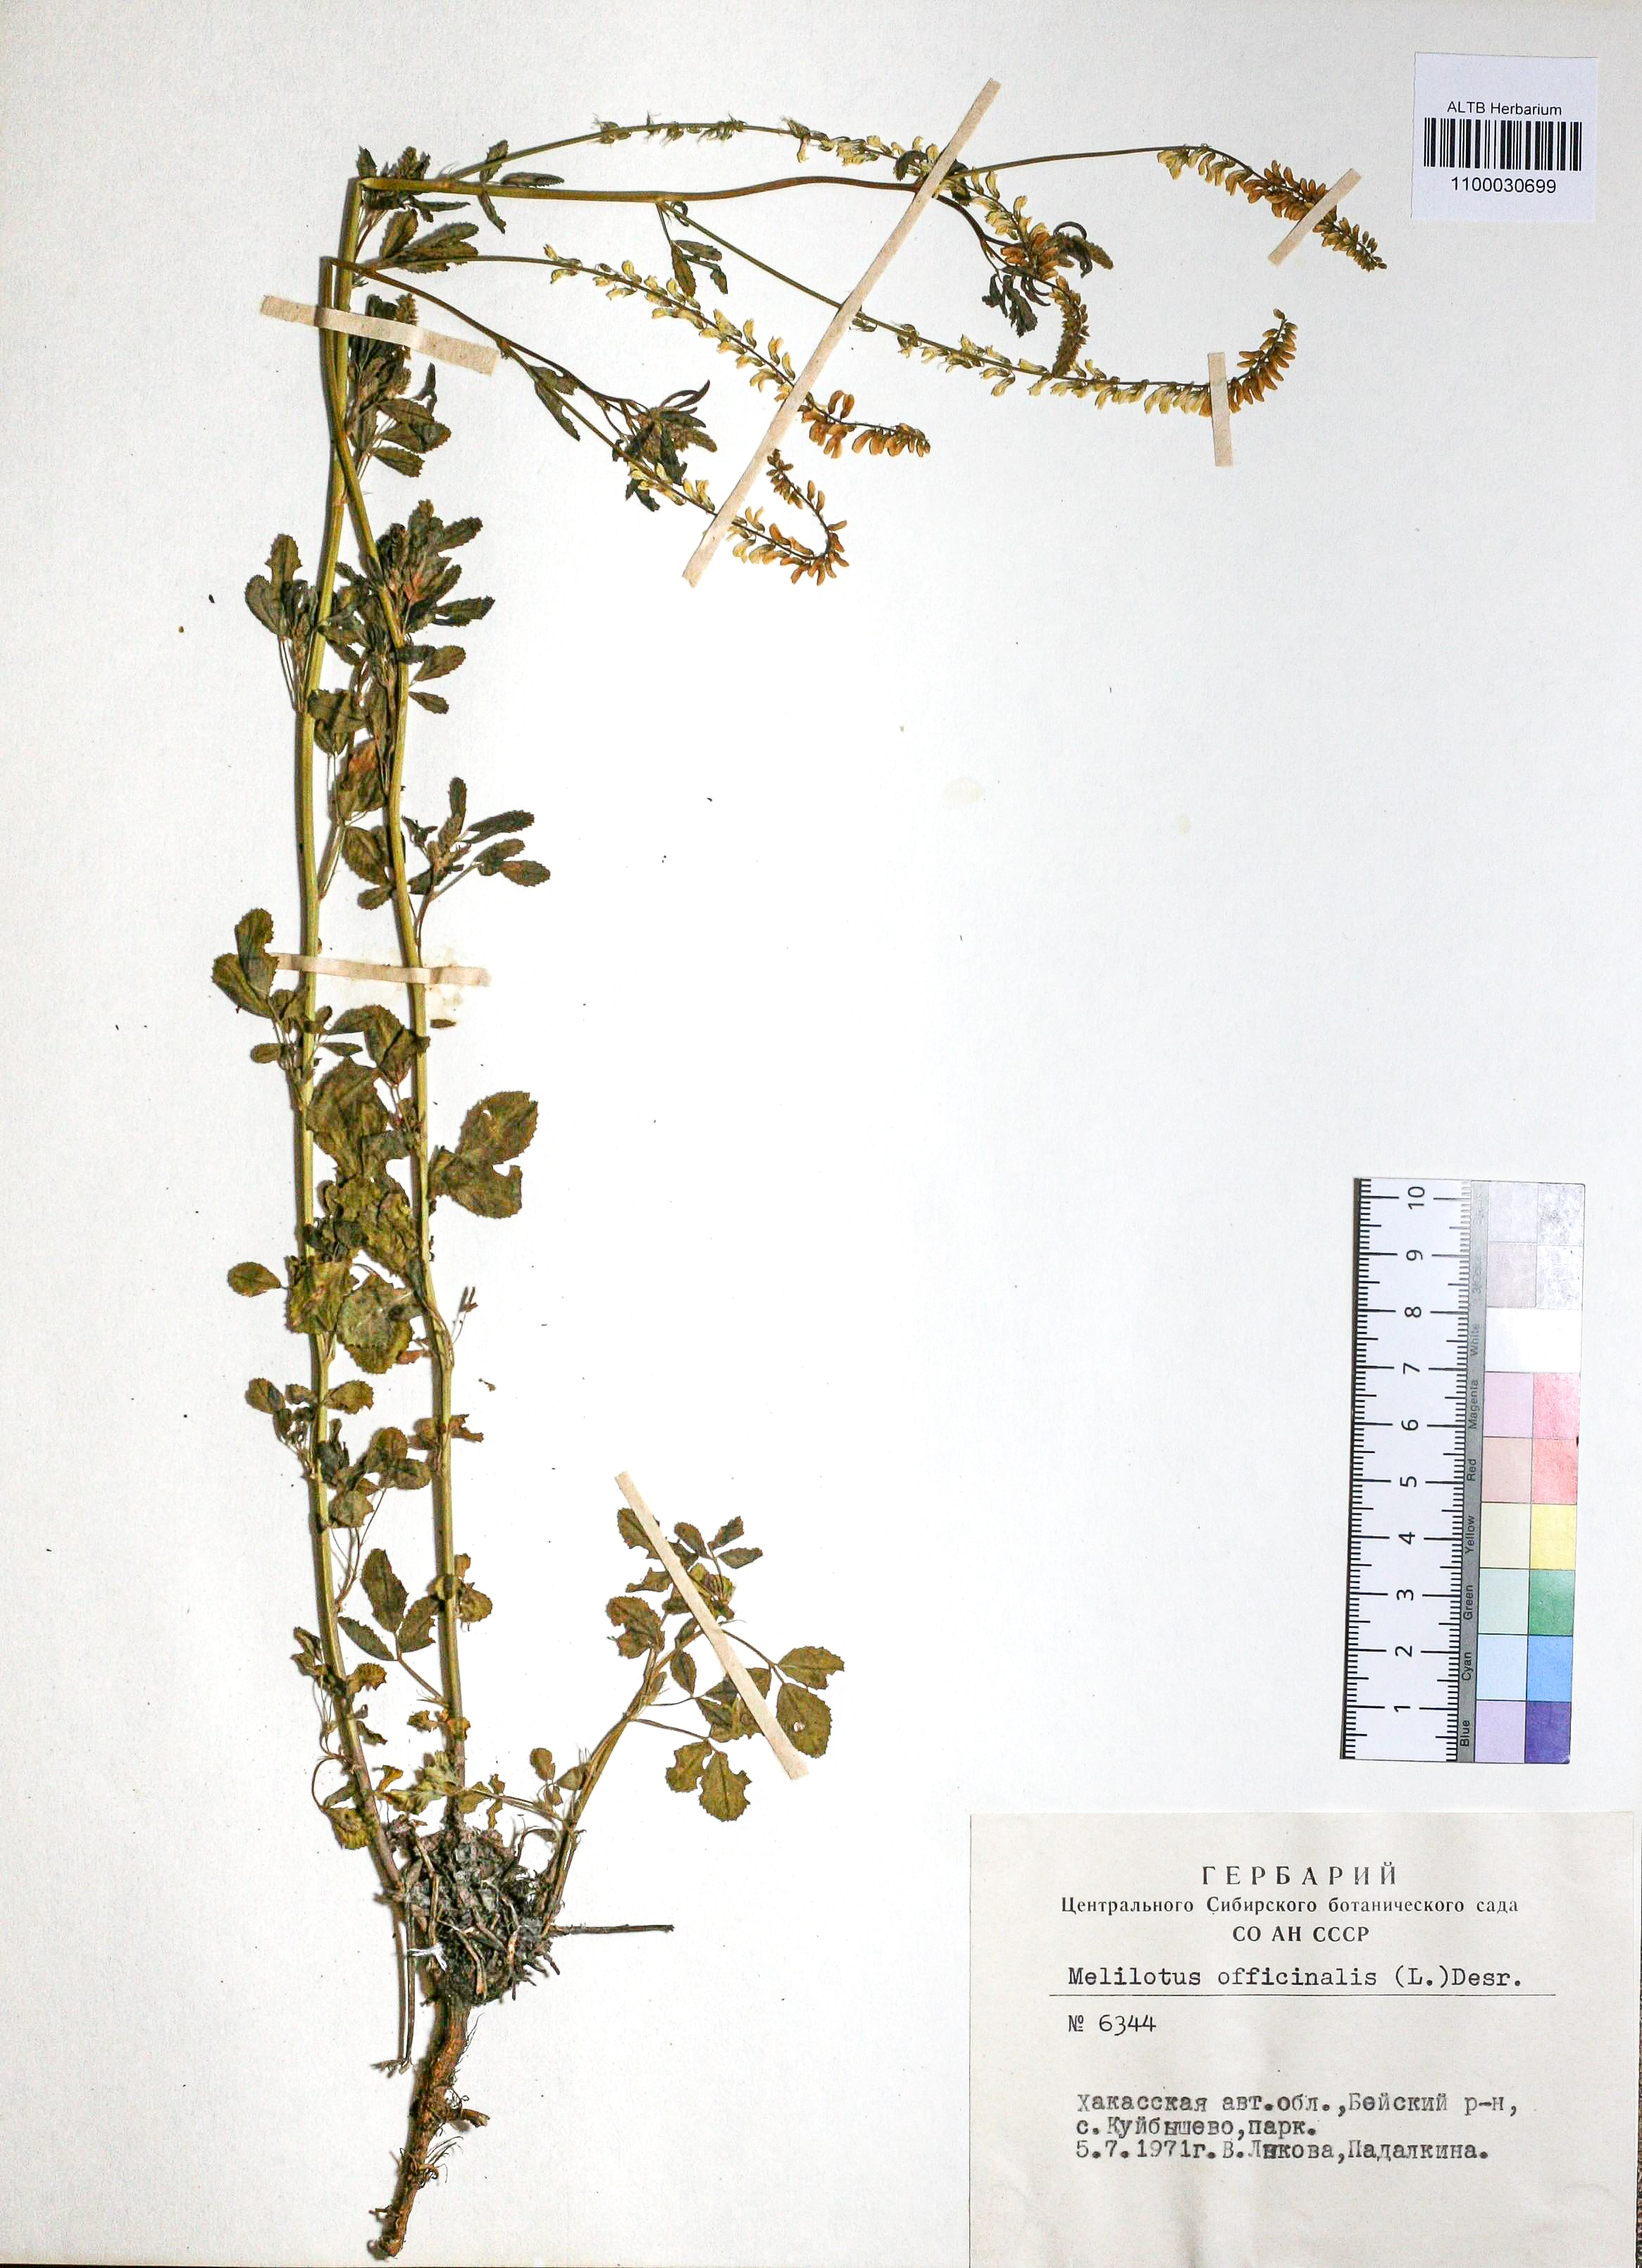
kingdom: Plantae
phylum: Tracheophyta
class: Magnoliopsida
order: Fabales
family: Fabaceae
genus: Melilotus
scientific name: Melilotus officinalis
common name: Sweetclover
